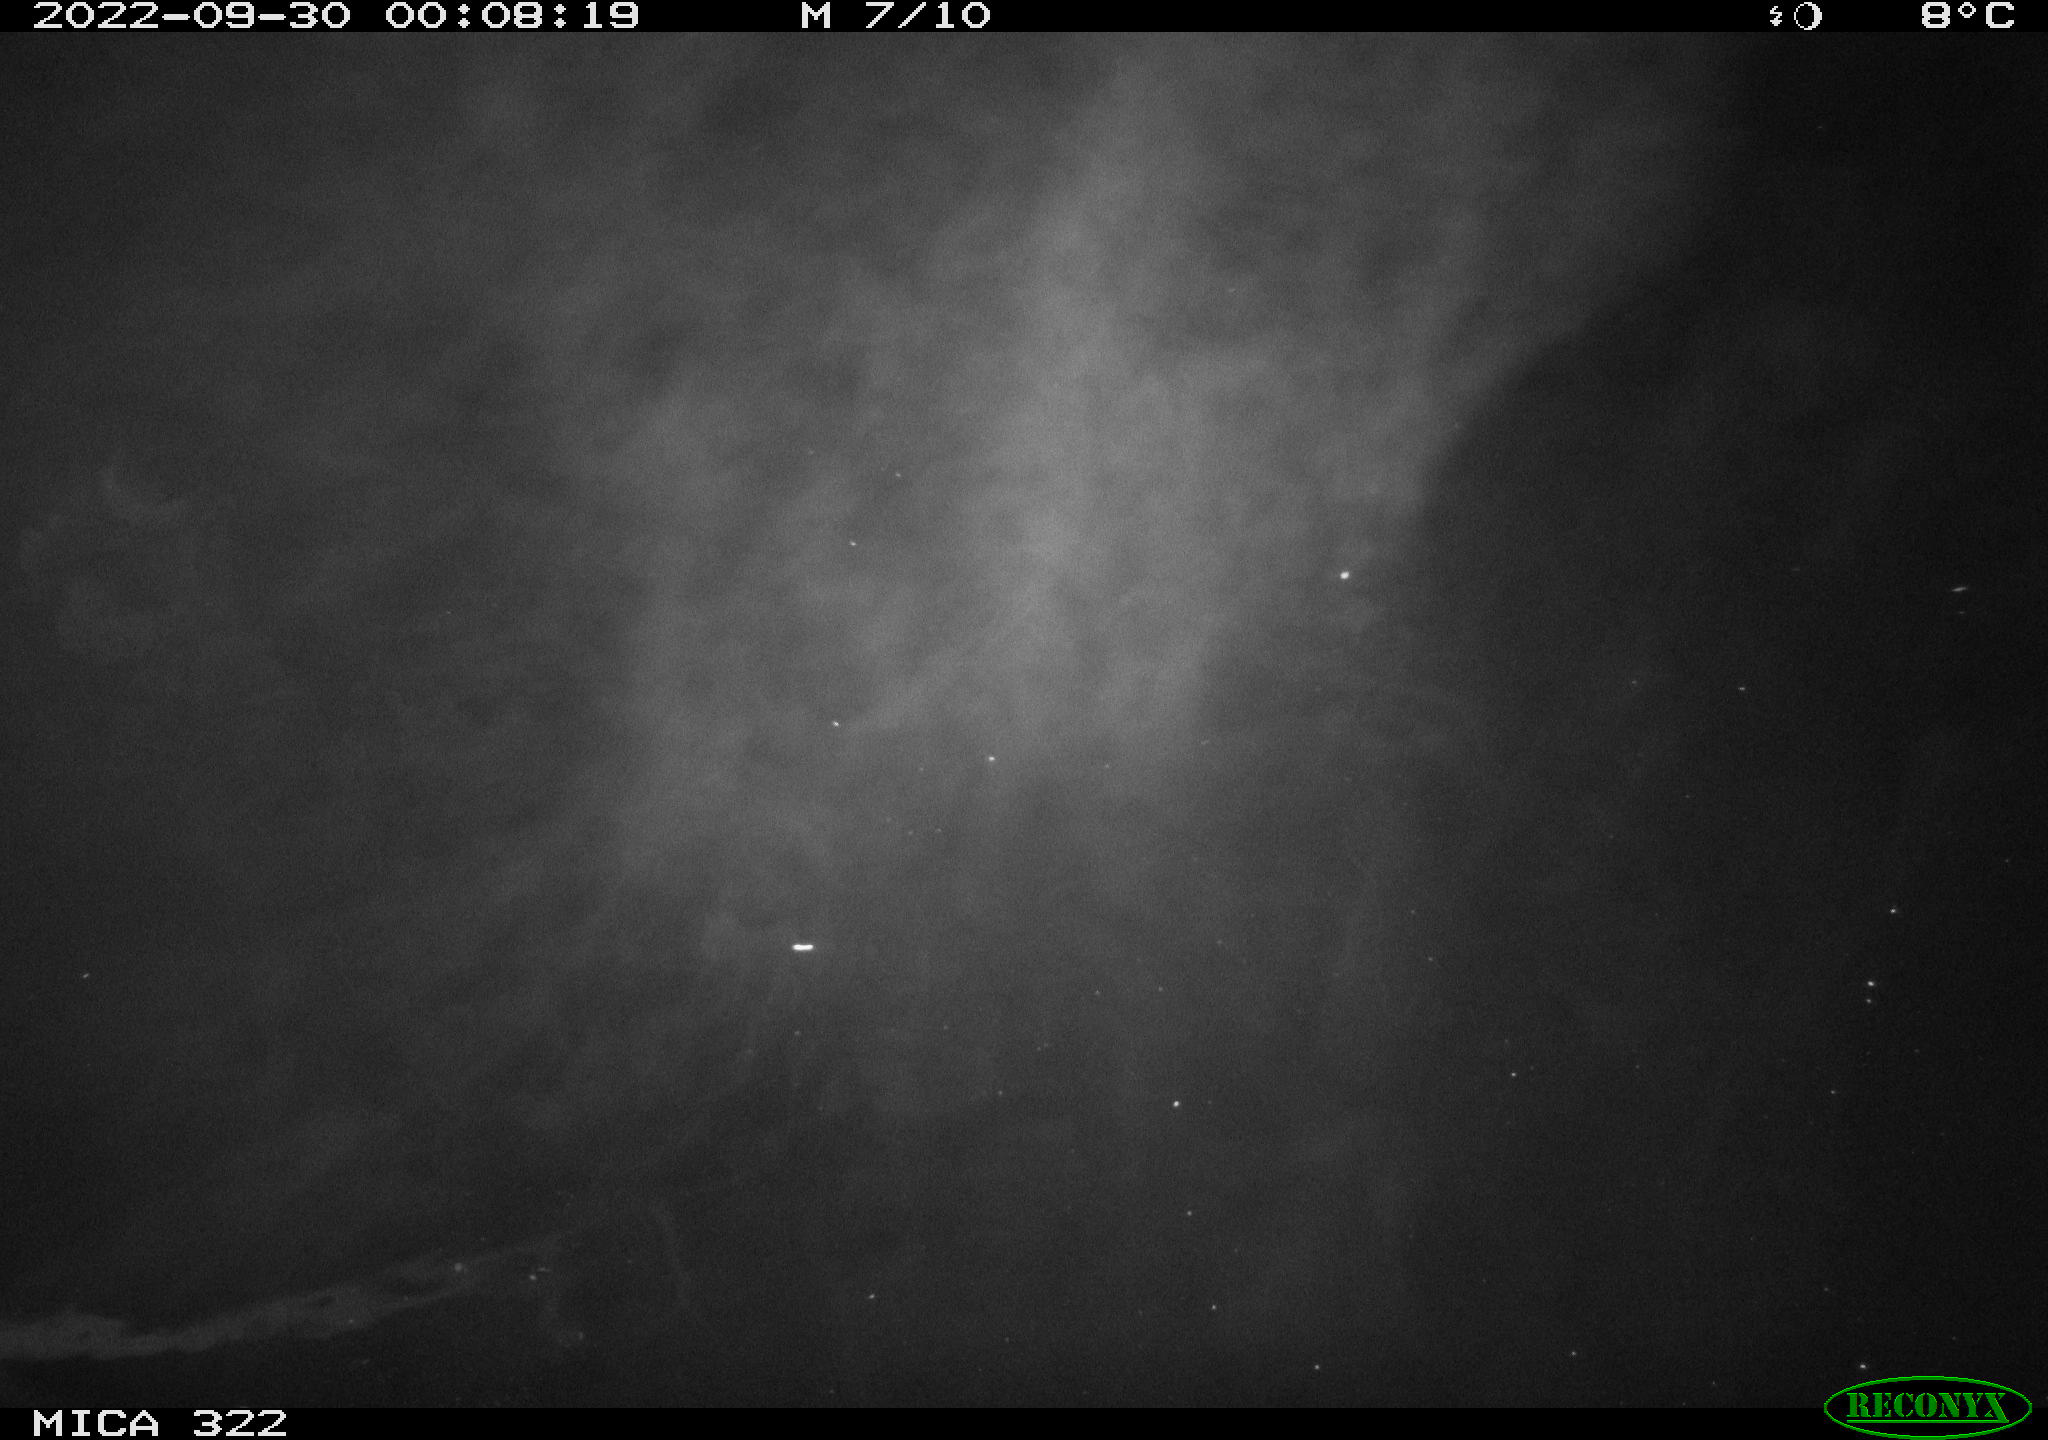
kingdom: Animalia
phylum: Chordata
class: Mammalia
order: Rodentia
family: Cricetidae
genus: Ondatra
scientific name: Ondatra zibethicus
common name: Muskrat
